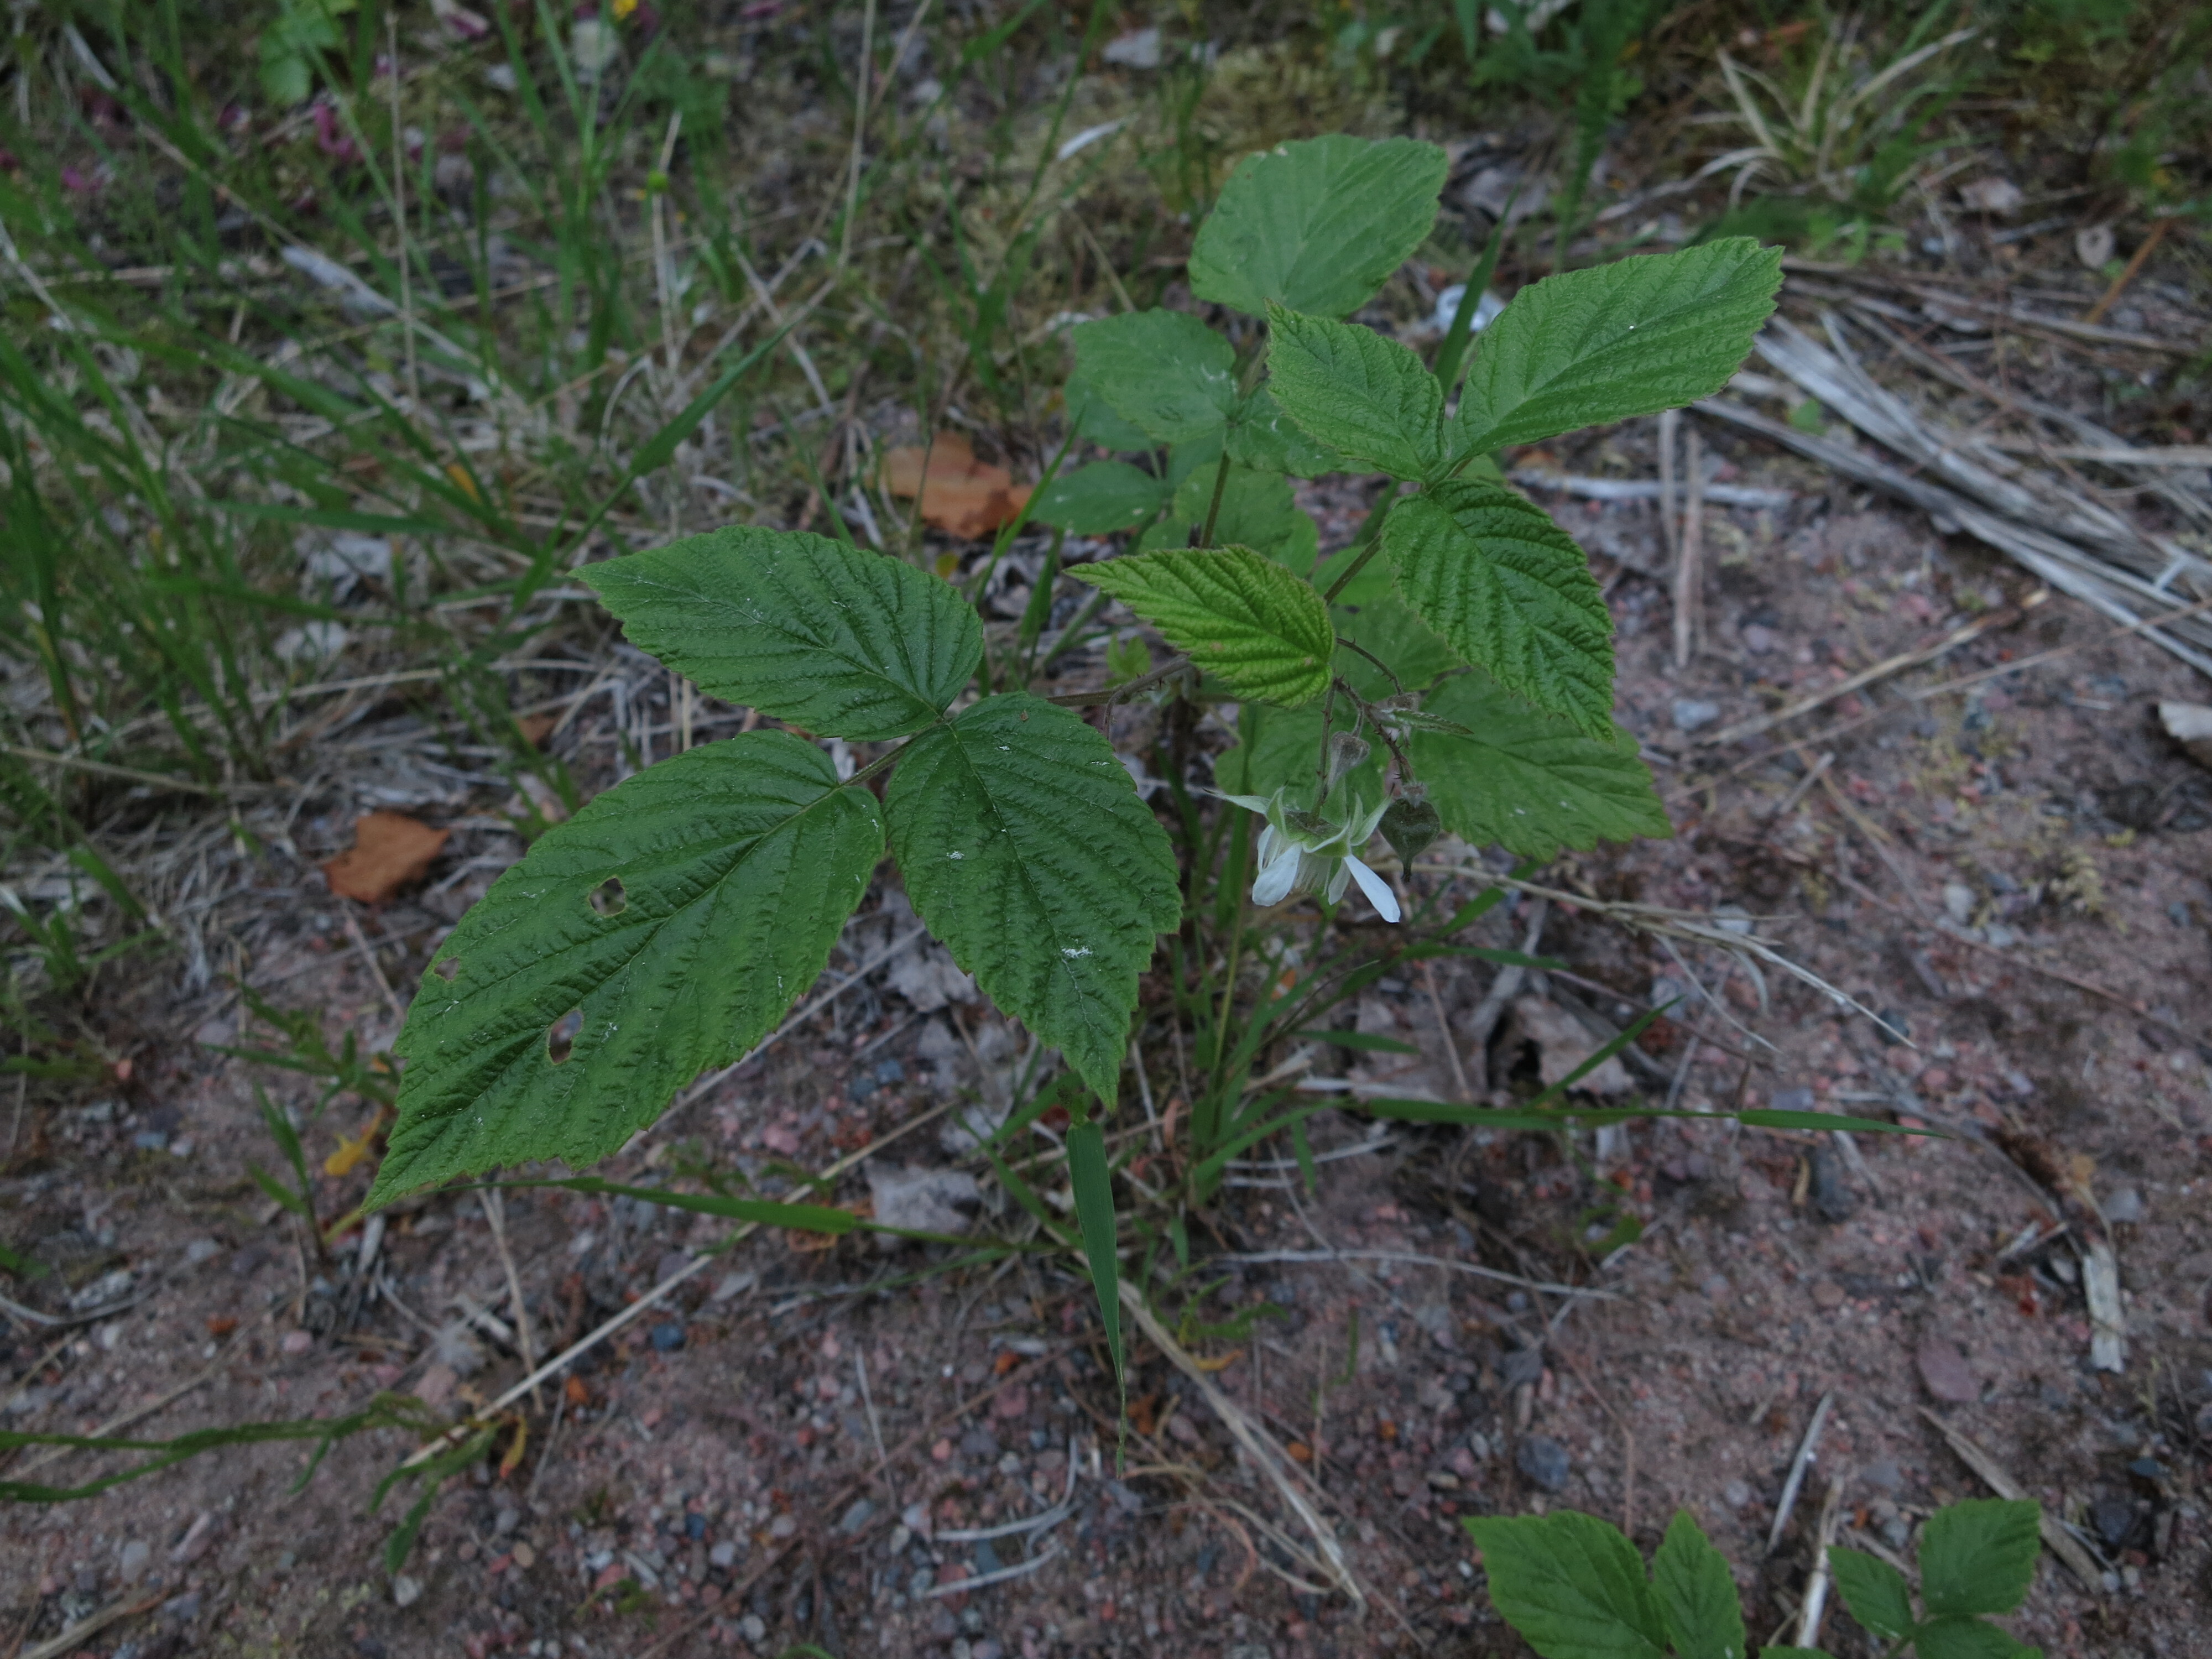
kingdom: Plantae
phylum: Tracheophyta
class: Magnoliopsida
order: Rosales
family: Rosaceae
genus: Rubus
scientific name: Rubus saxatilis
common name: Stone bramble
